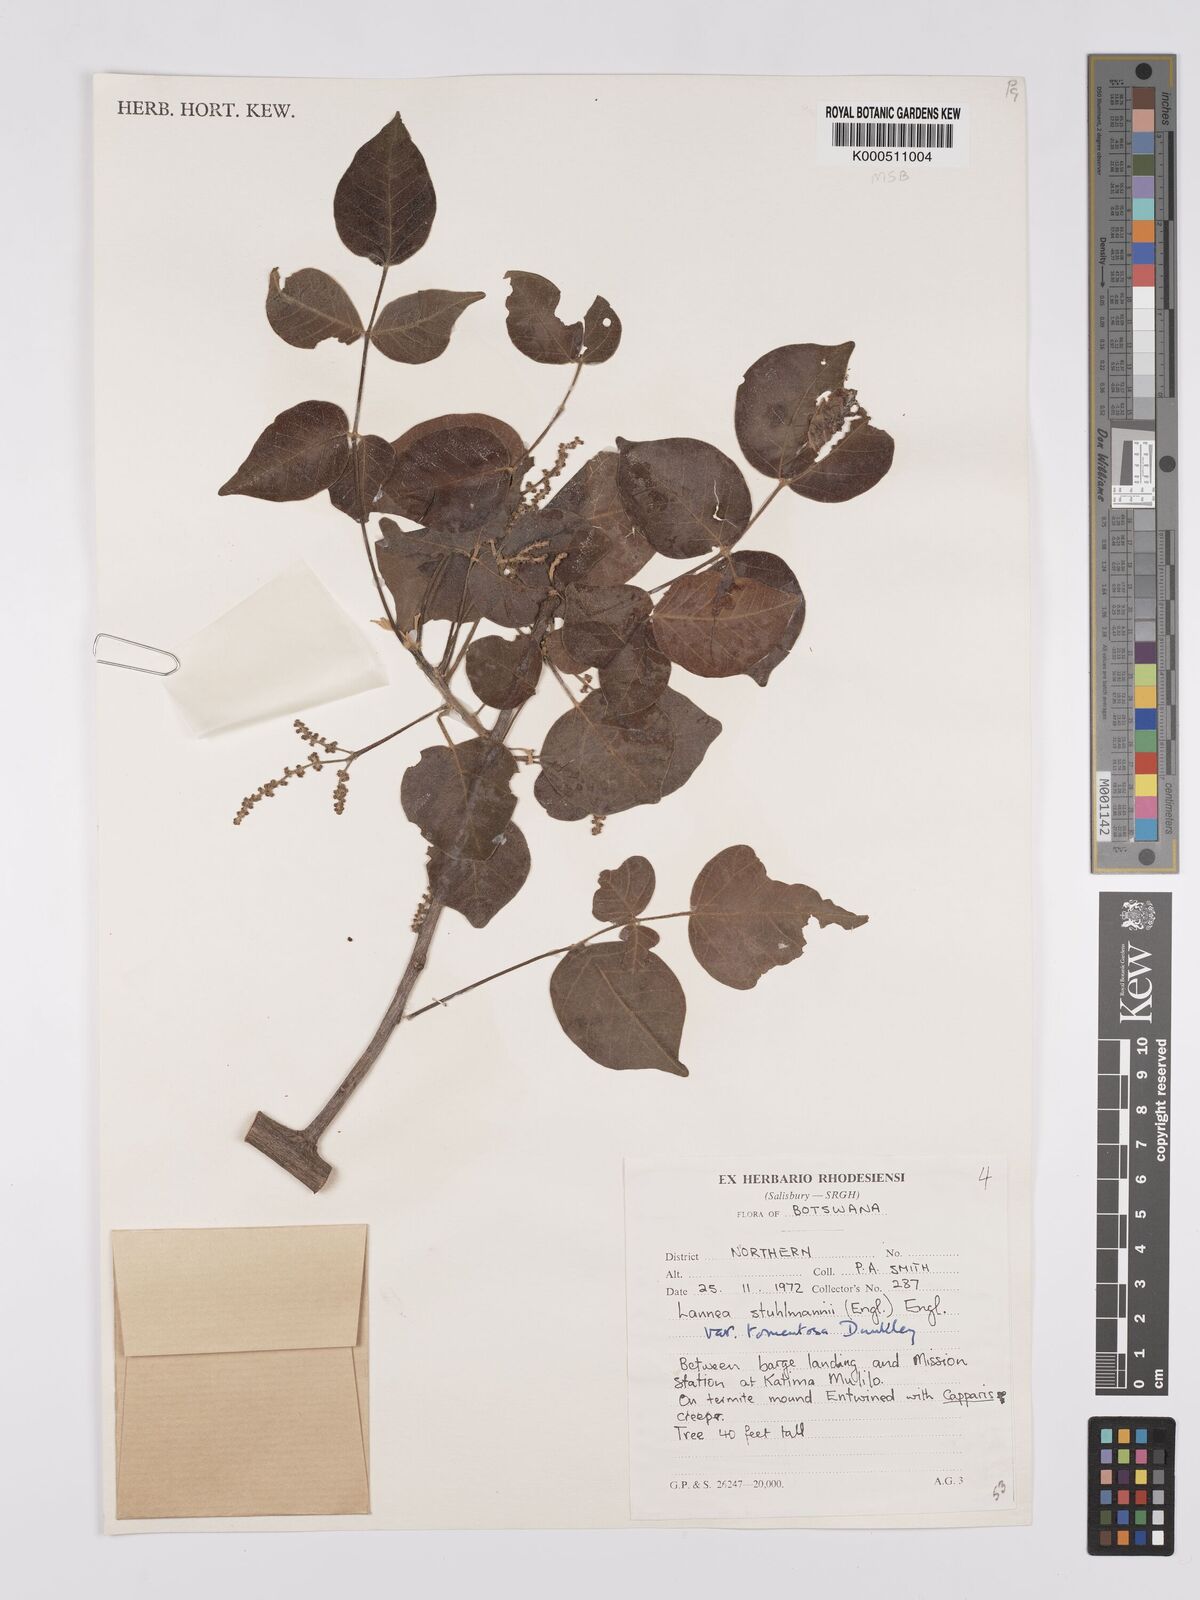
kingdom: Plantae
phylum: Tracheophyta
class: Magnoliopsida
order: Sapindales
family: Anacardiaceae
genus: Lannea
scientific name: Lannea schweinfurthii
